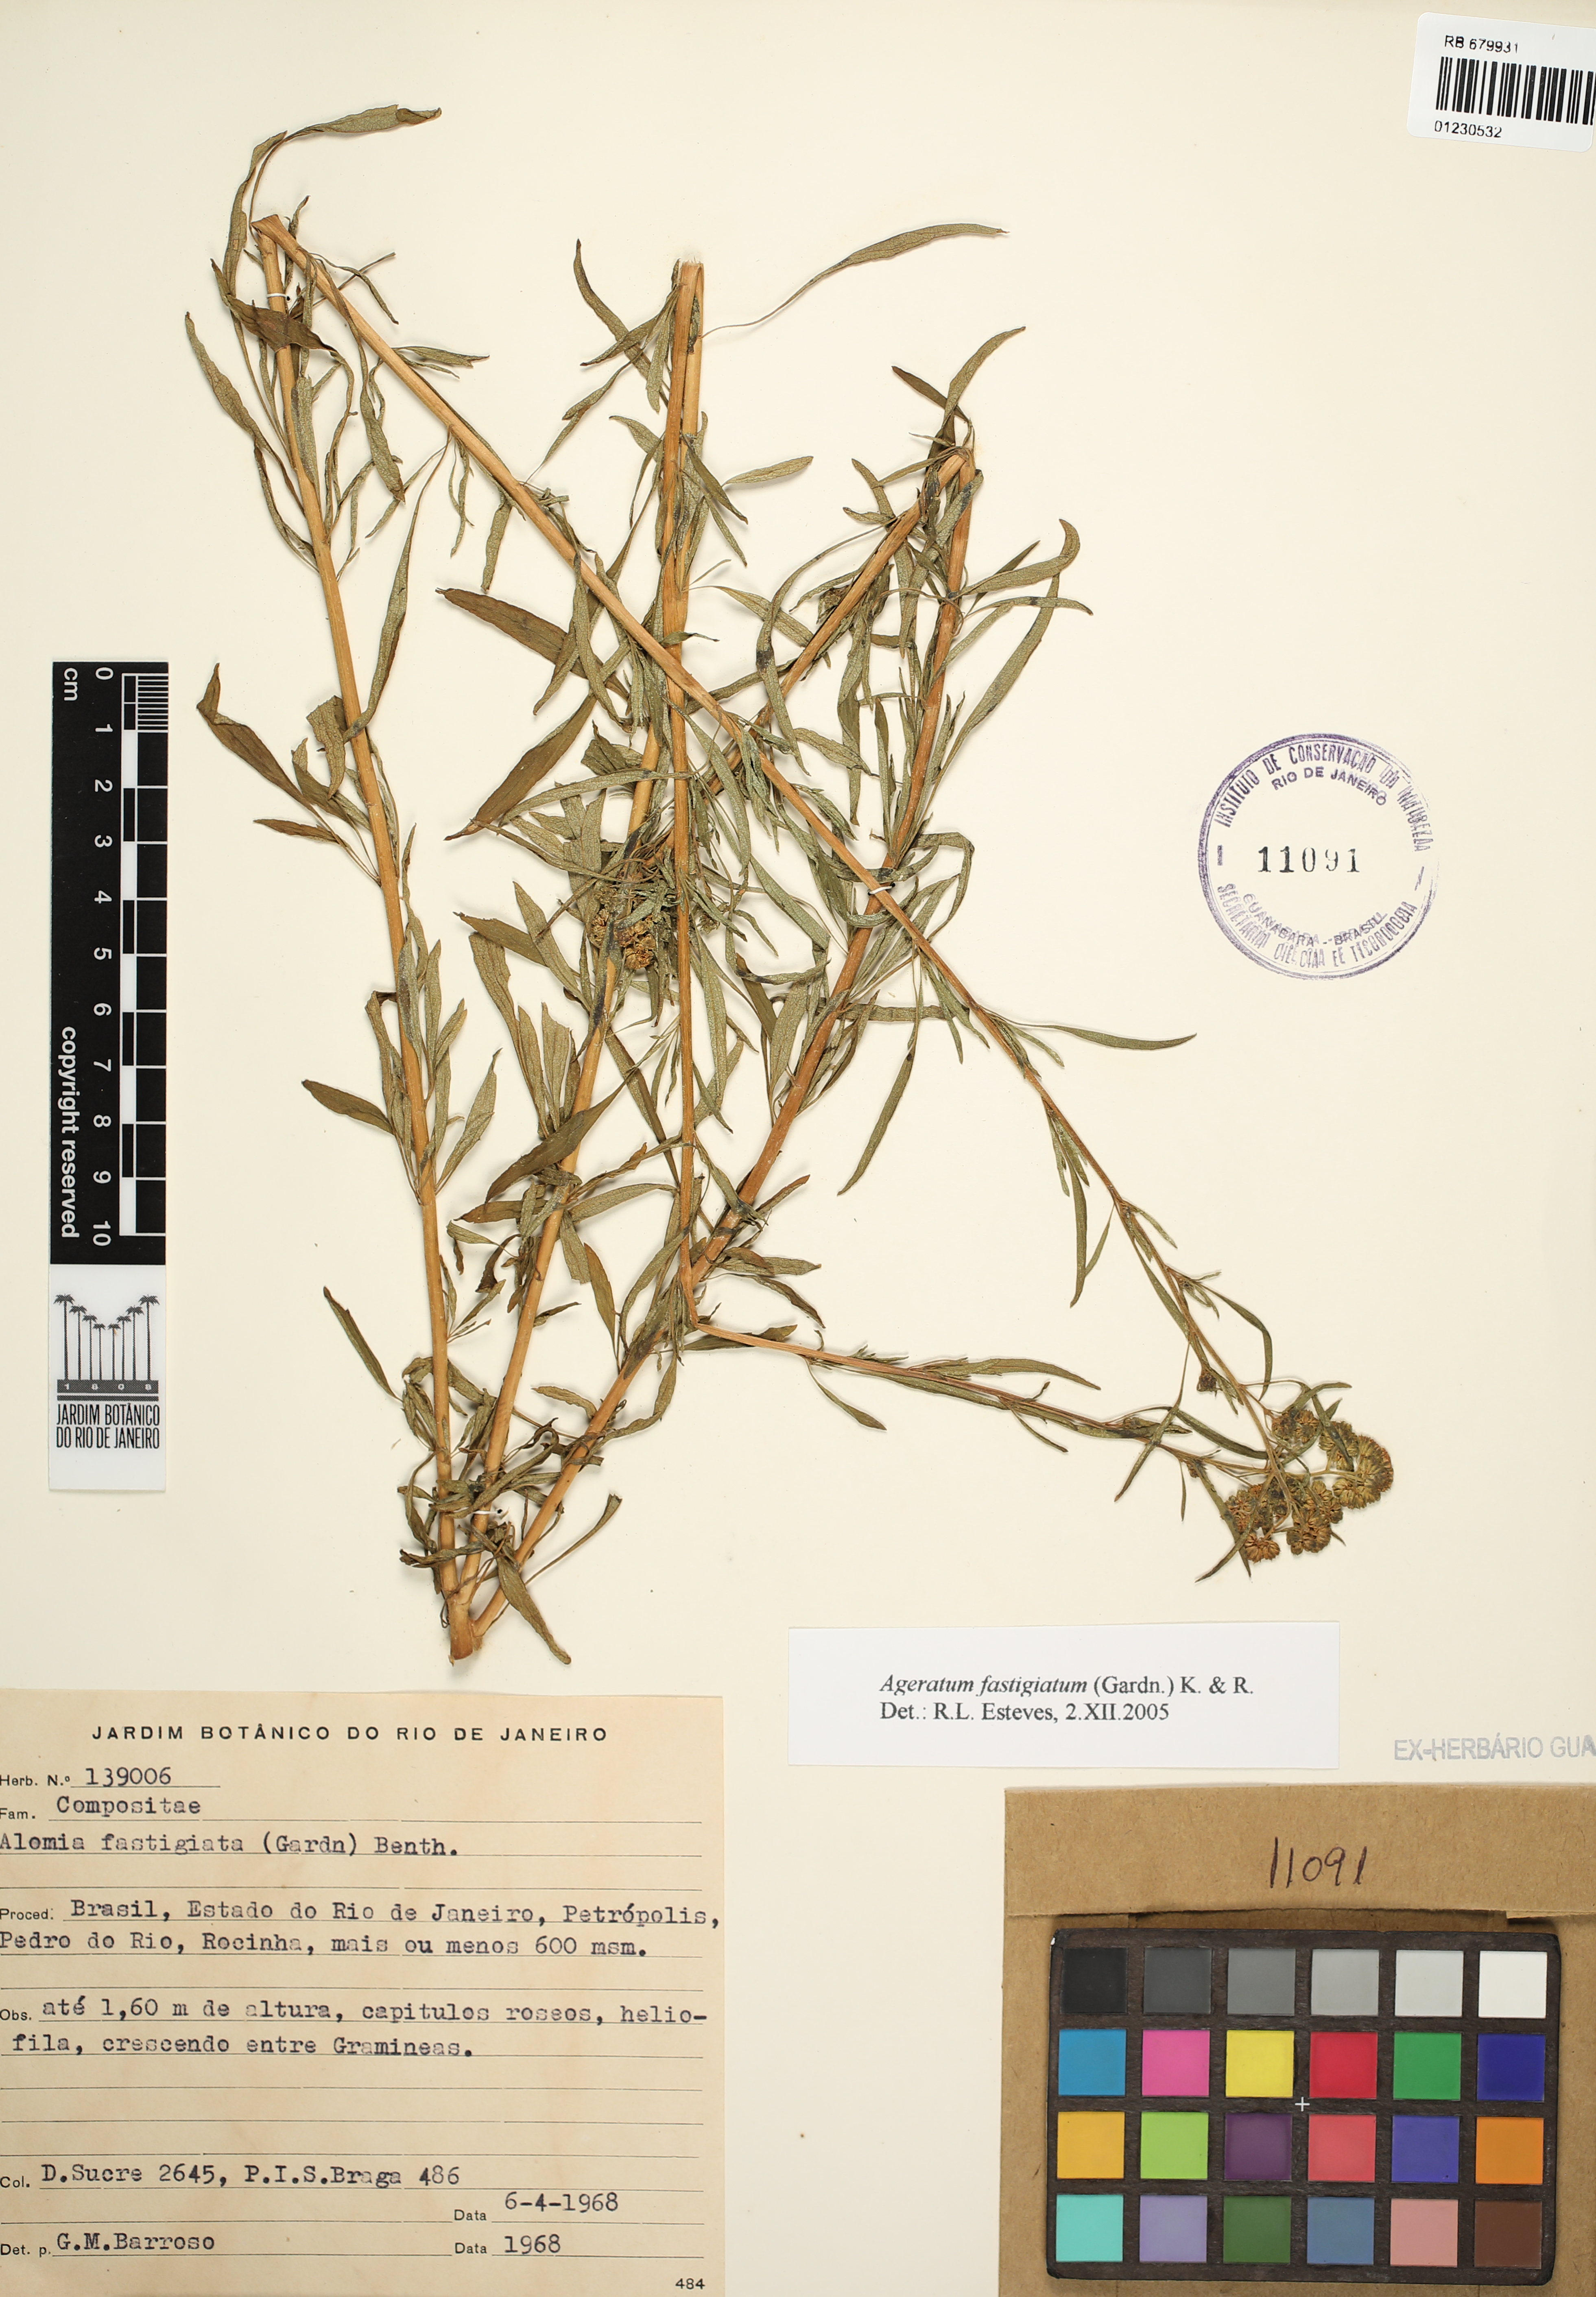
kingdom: Plantae
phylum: Tracheophyta
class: Magnoliopsida
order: Asterales
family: Asteraceae
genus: Ageratum
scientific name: Ageratum fastigiatum
